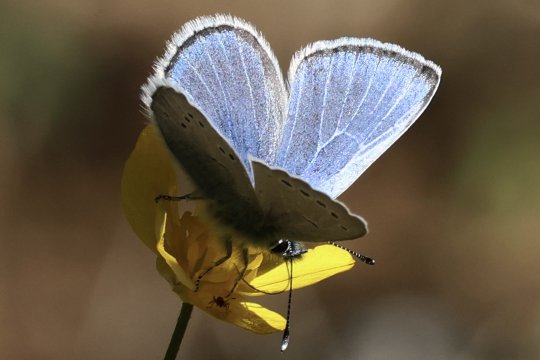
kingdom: Animalia
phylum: Arthropoda
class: Insecta
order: Lepidoptera
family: Lycaenidae
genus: Glaucopsyche
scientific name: Glaucopsyche lygdamus
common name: Silvery Blue
